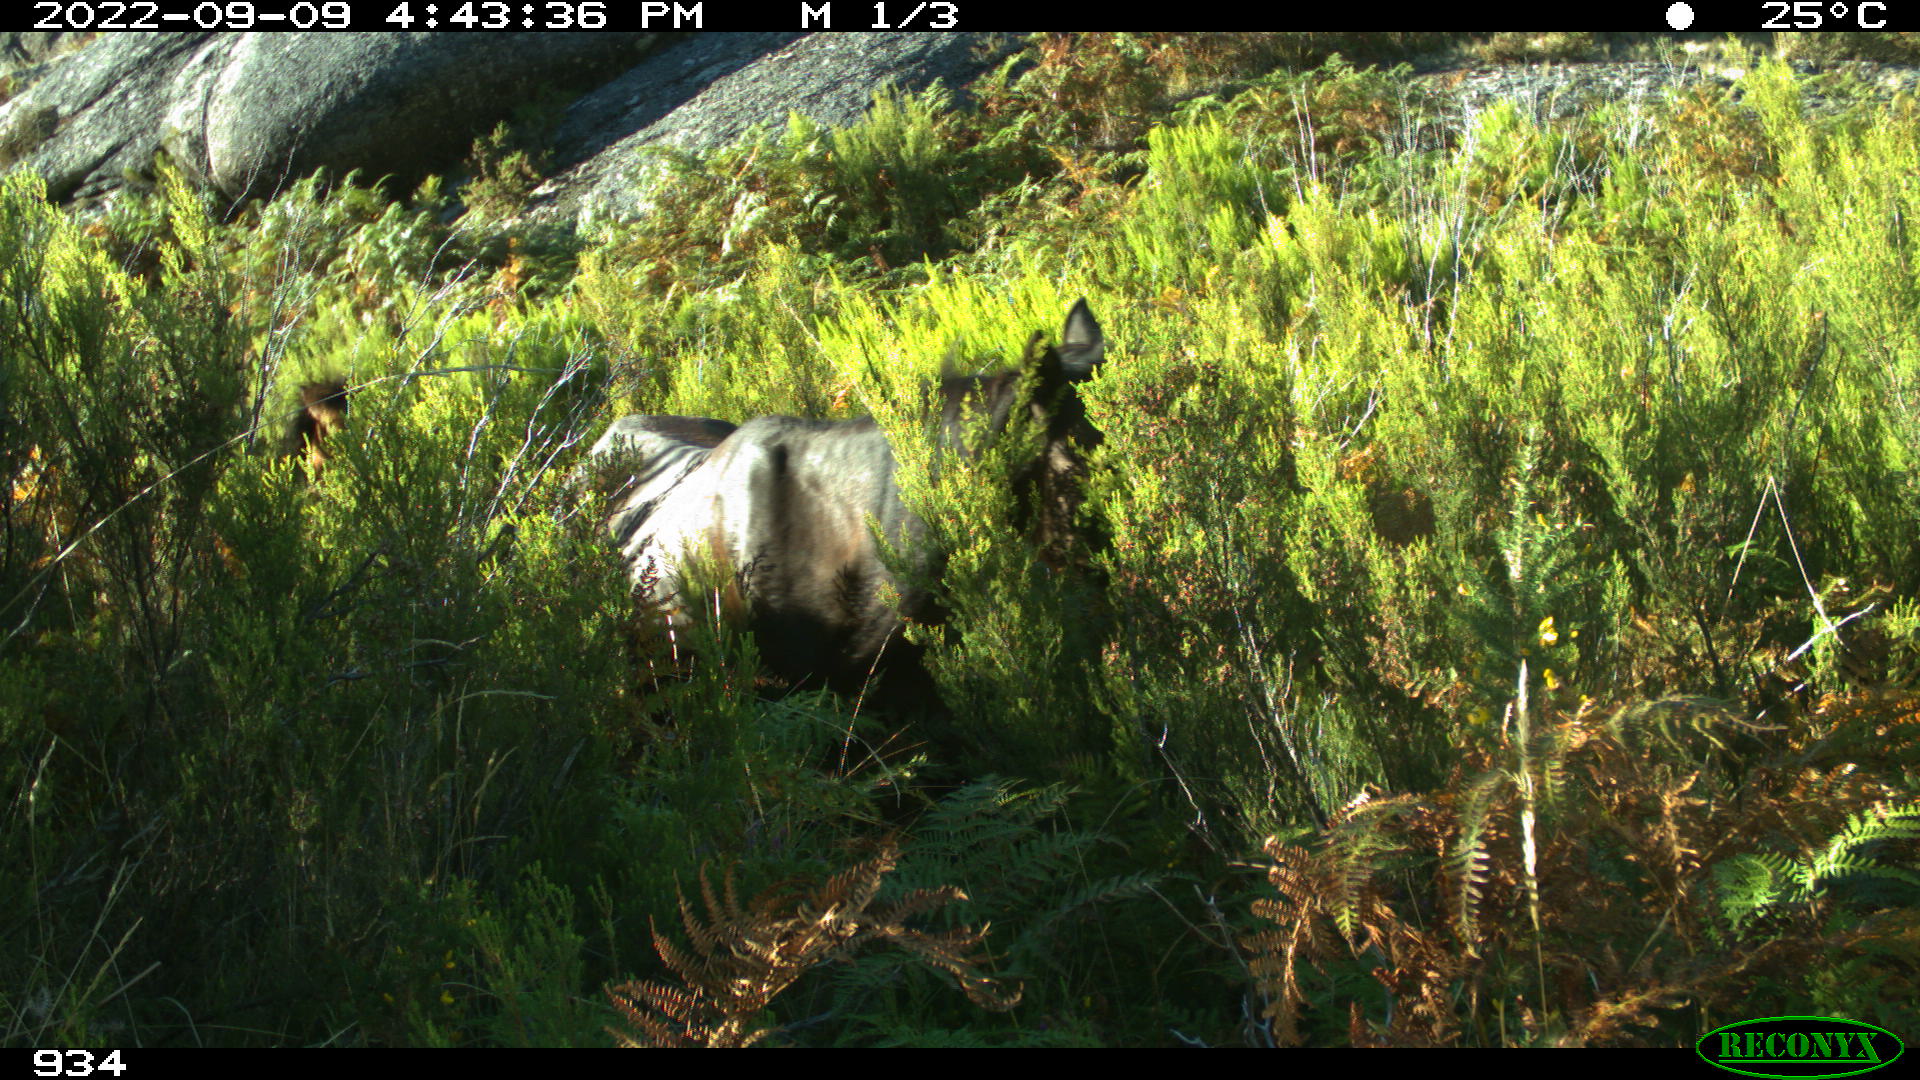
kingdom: Animalia
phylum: Chordata
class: Mammalia
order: Perissodactyla
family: Equidae
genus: Equus
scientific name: Equus caballus
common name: Horse
